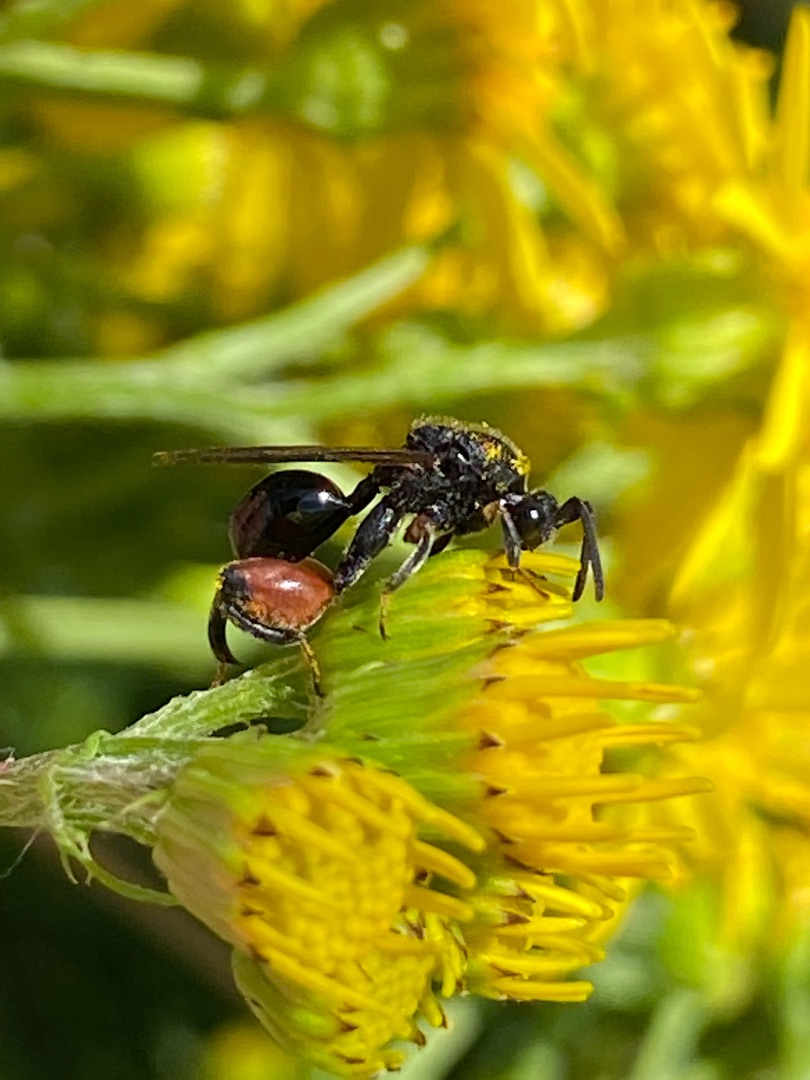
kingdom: Animalia
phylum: Arthropoda
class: Insecta
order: Hymenoptera
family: Chalcididae
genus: Chalcis
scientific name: Chalcis sispes
